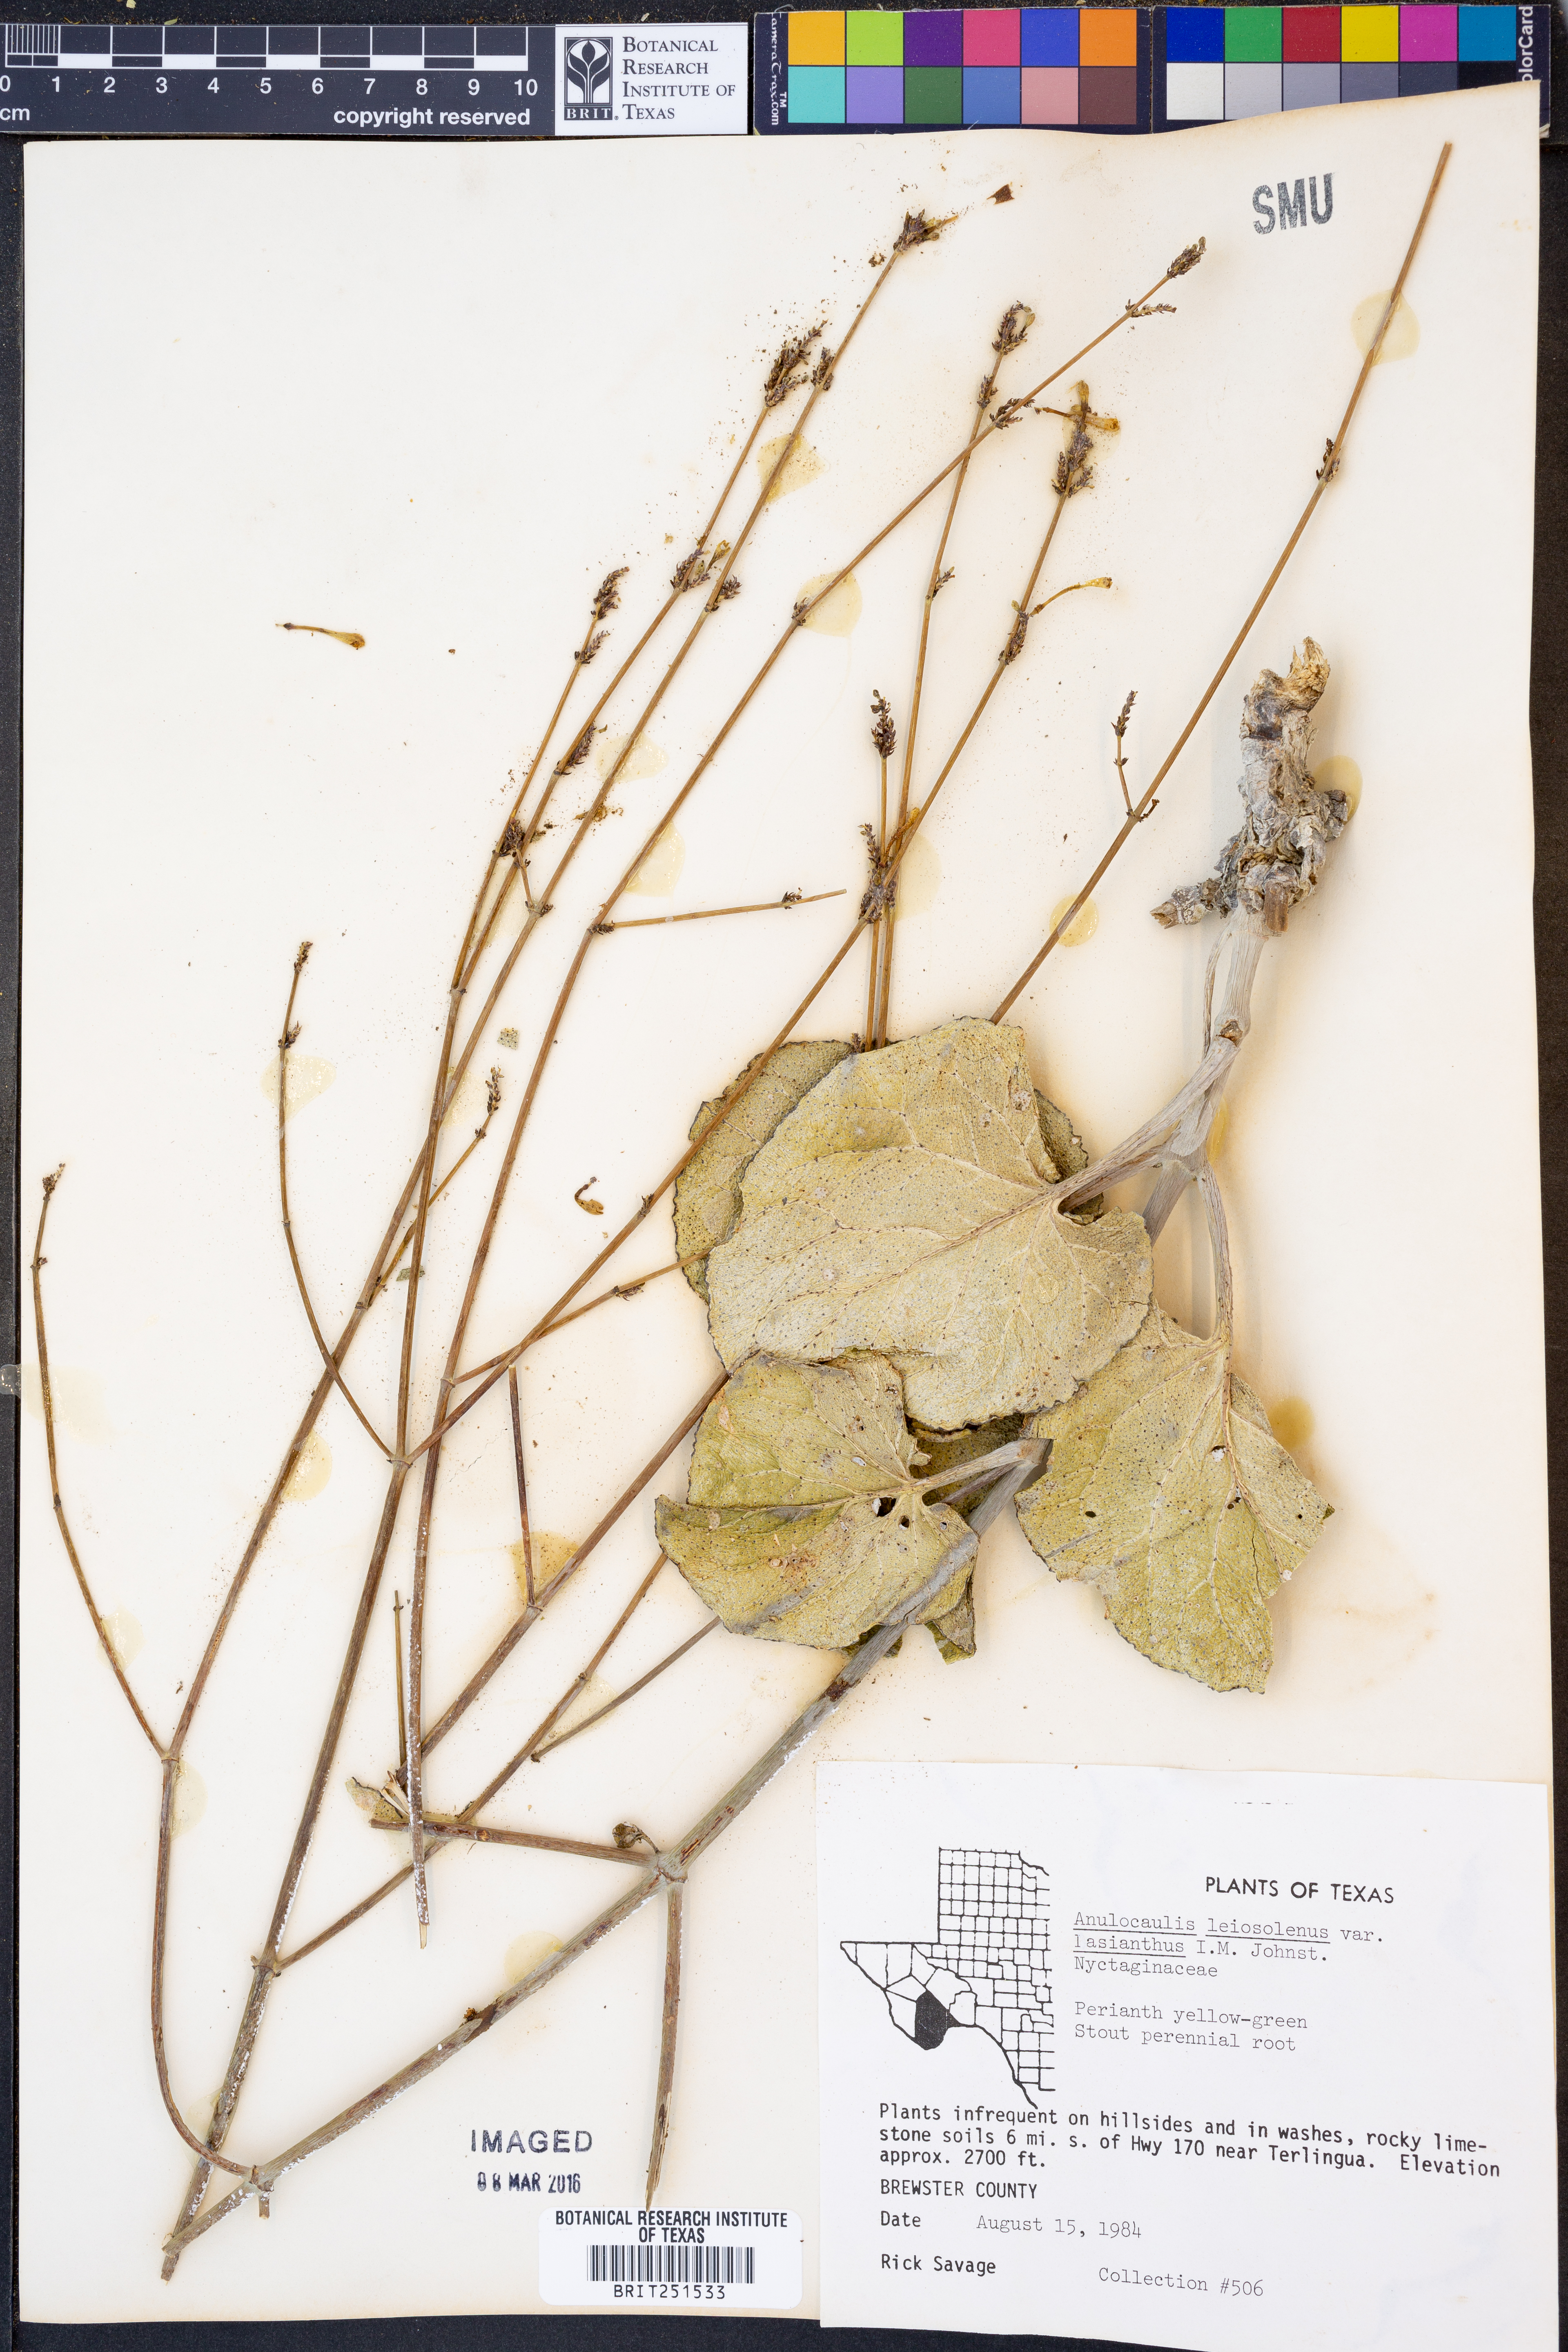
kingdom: Plantae
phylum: Tracheophyta
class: Magnoliopsida
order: Caryophyllales
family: Nyctaginaceae
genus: Anulocaulis
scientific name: Anulocaulis leiosolenus
